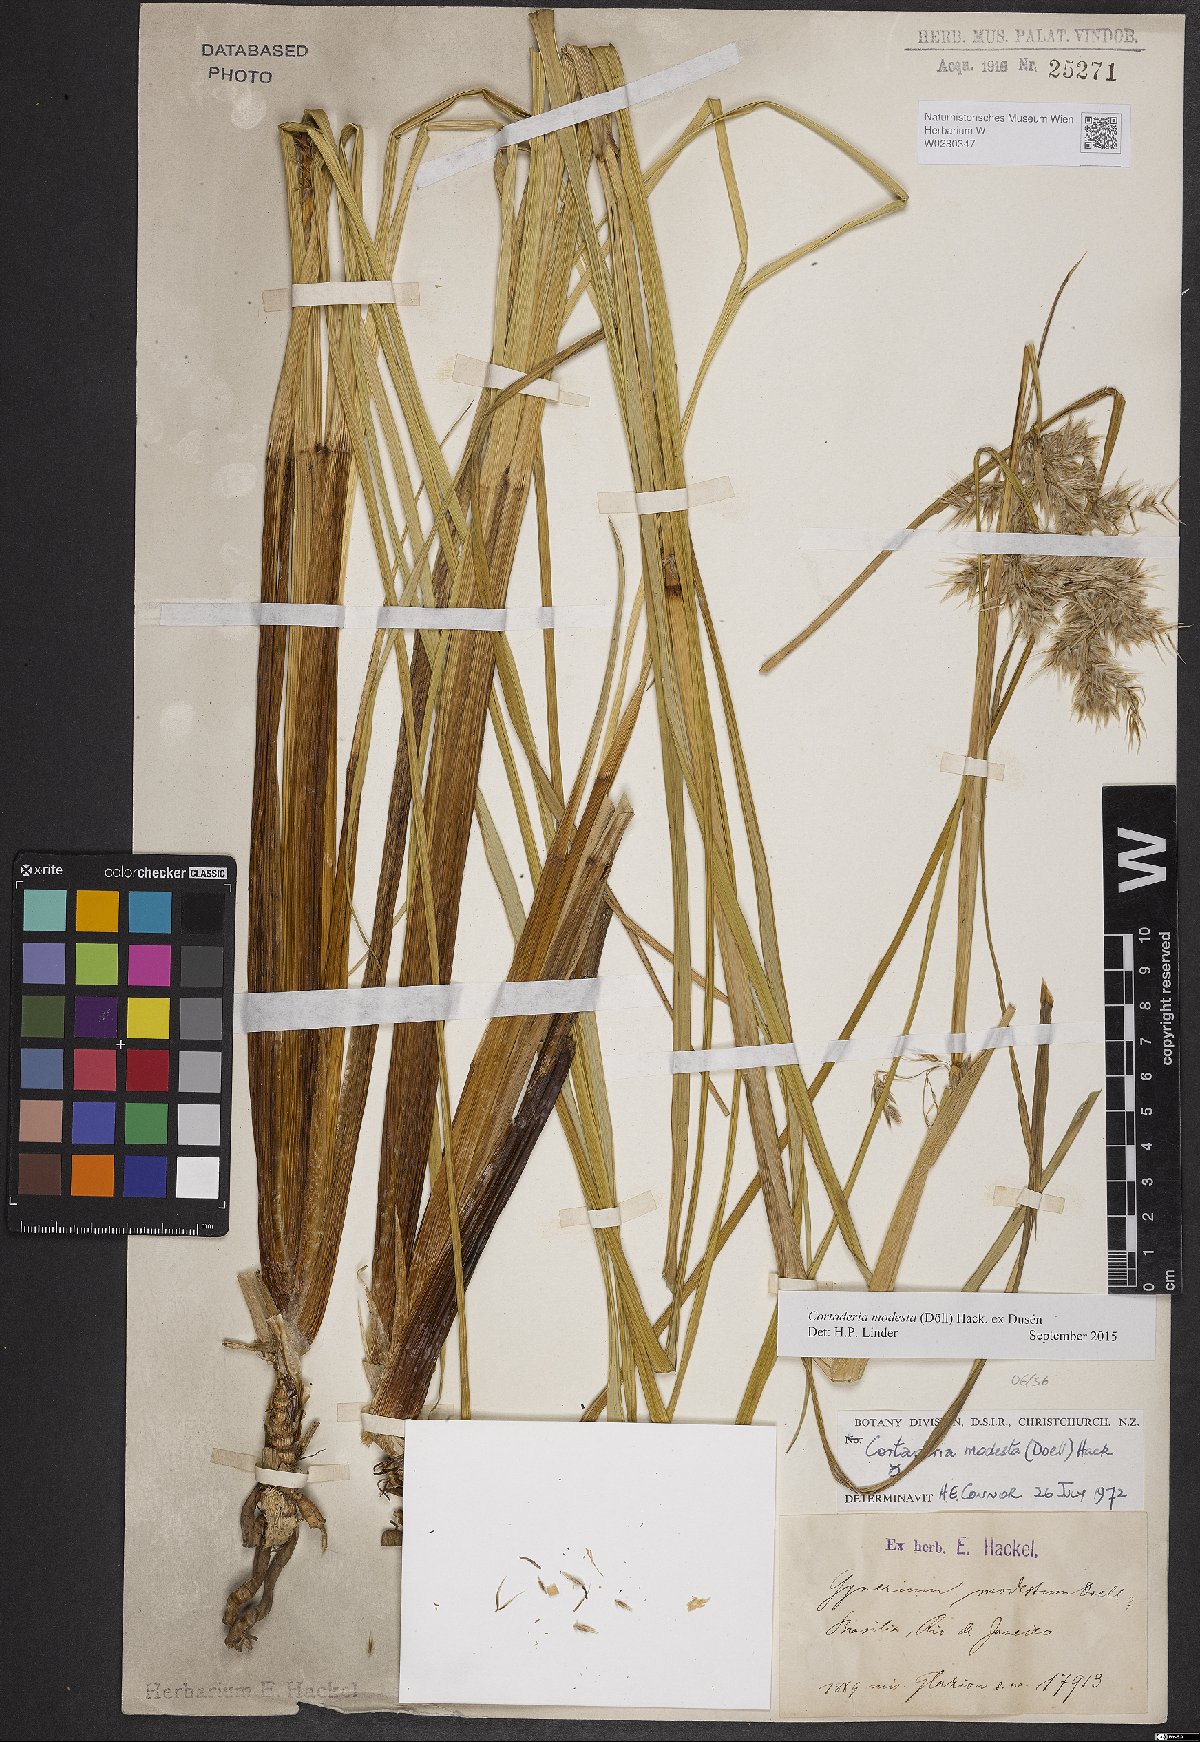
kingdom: Plantae
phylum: Tracheophyta
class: Liliopsida
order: Poales
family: Poaceae
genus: Cortaderia
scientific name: Cortaderia modesta
